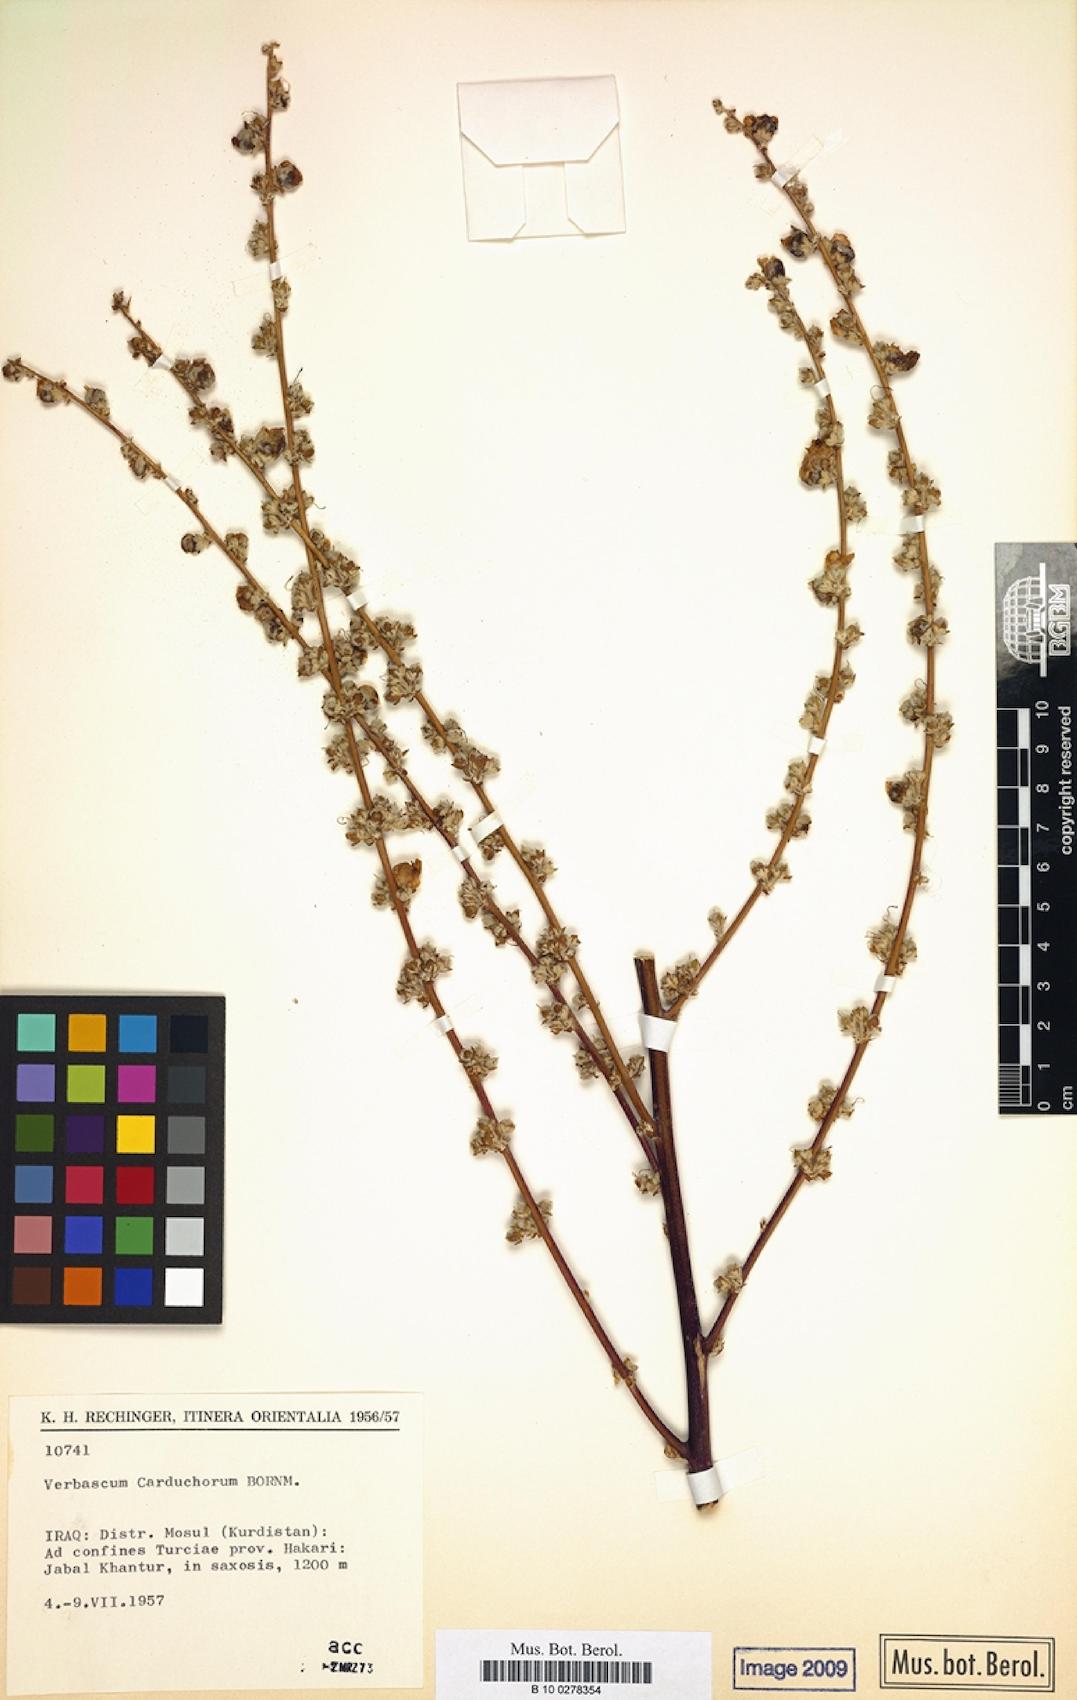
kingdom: Plantae
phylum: Tracheophyta
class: Magnoliopsida
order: Lamiales
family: Scrophulariaceae
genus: Verbascum
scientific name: Verbascum carduchorum
